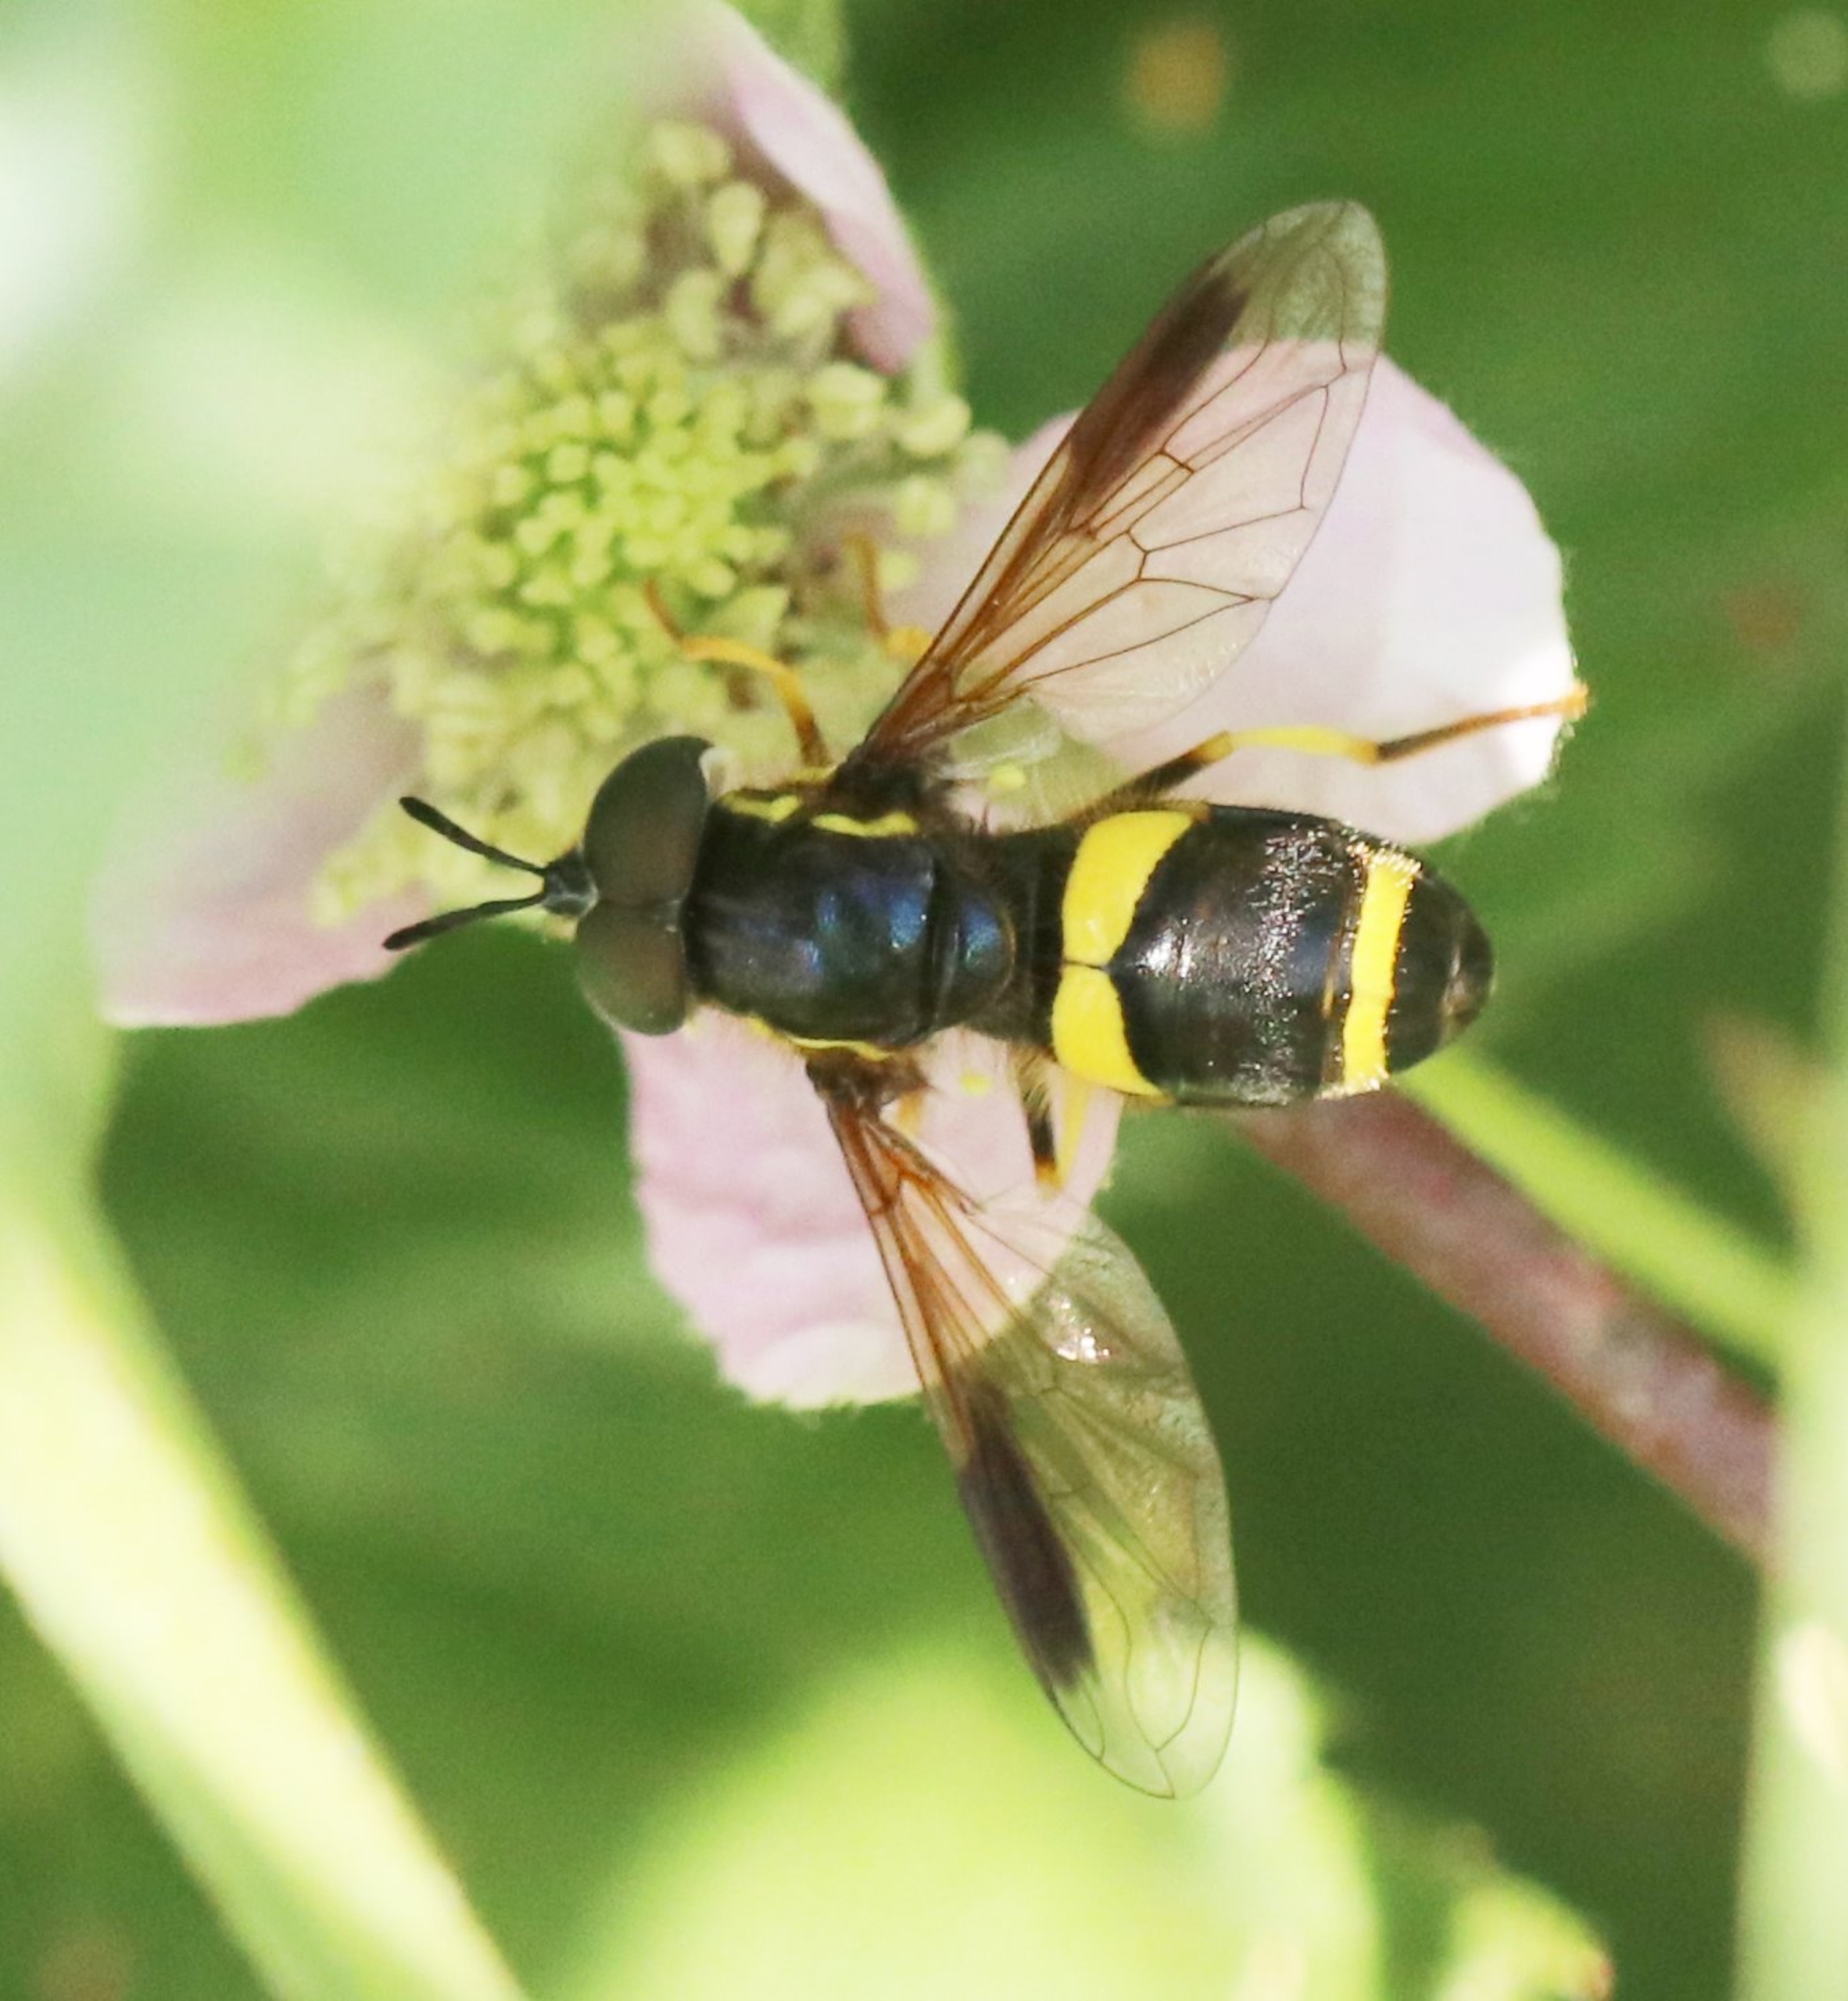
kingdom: Animalia
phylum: Arthropoda
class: Insecta
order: Diptera
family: Syrphidae
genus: Chrysotoxum
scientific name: Chrysotoxum bicincta
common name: Tobåndet hvepsesvirreflue
